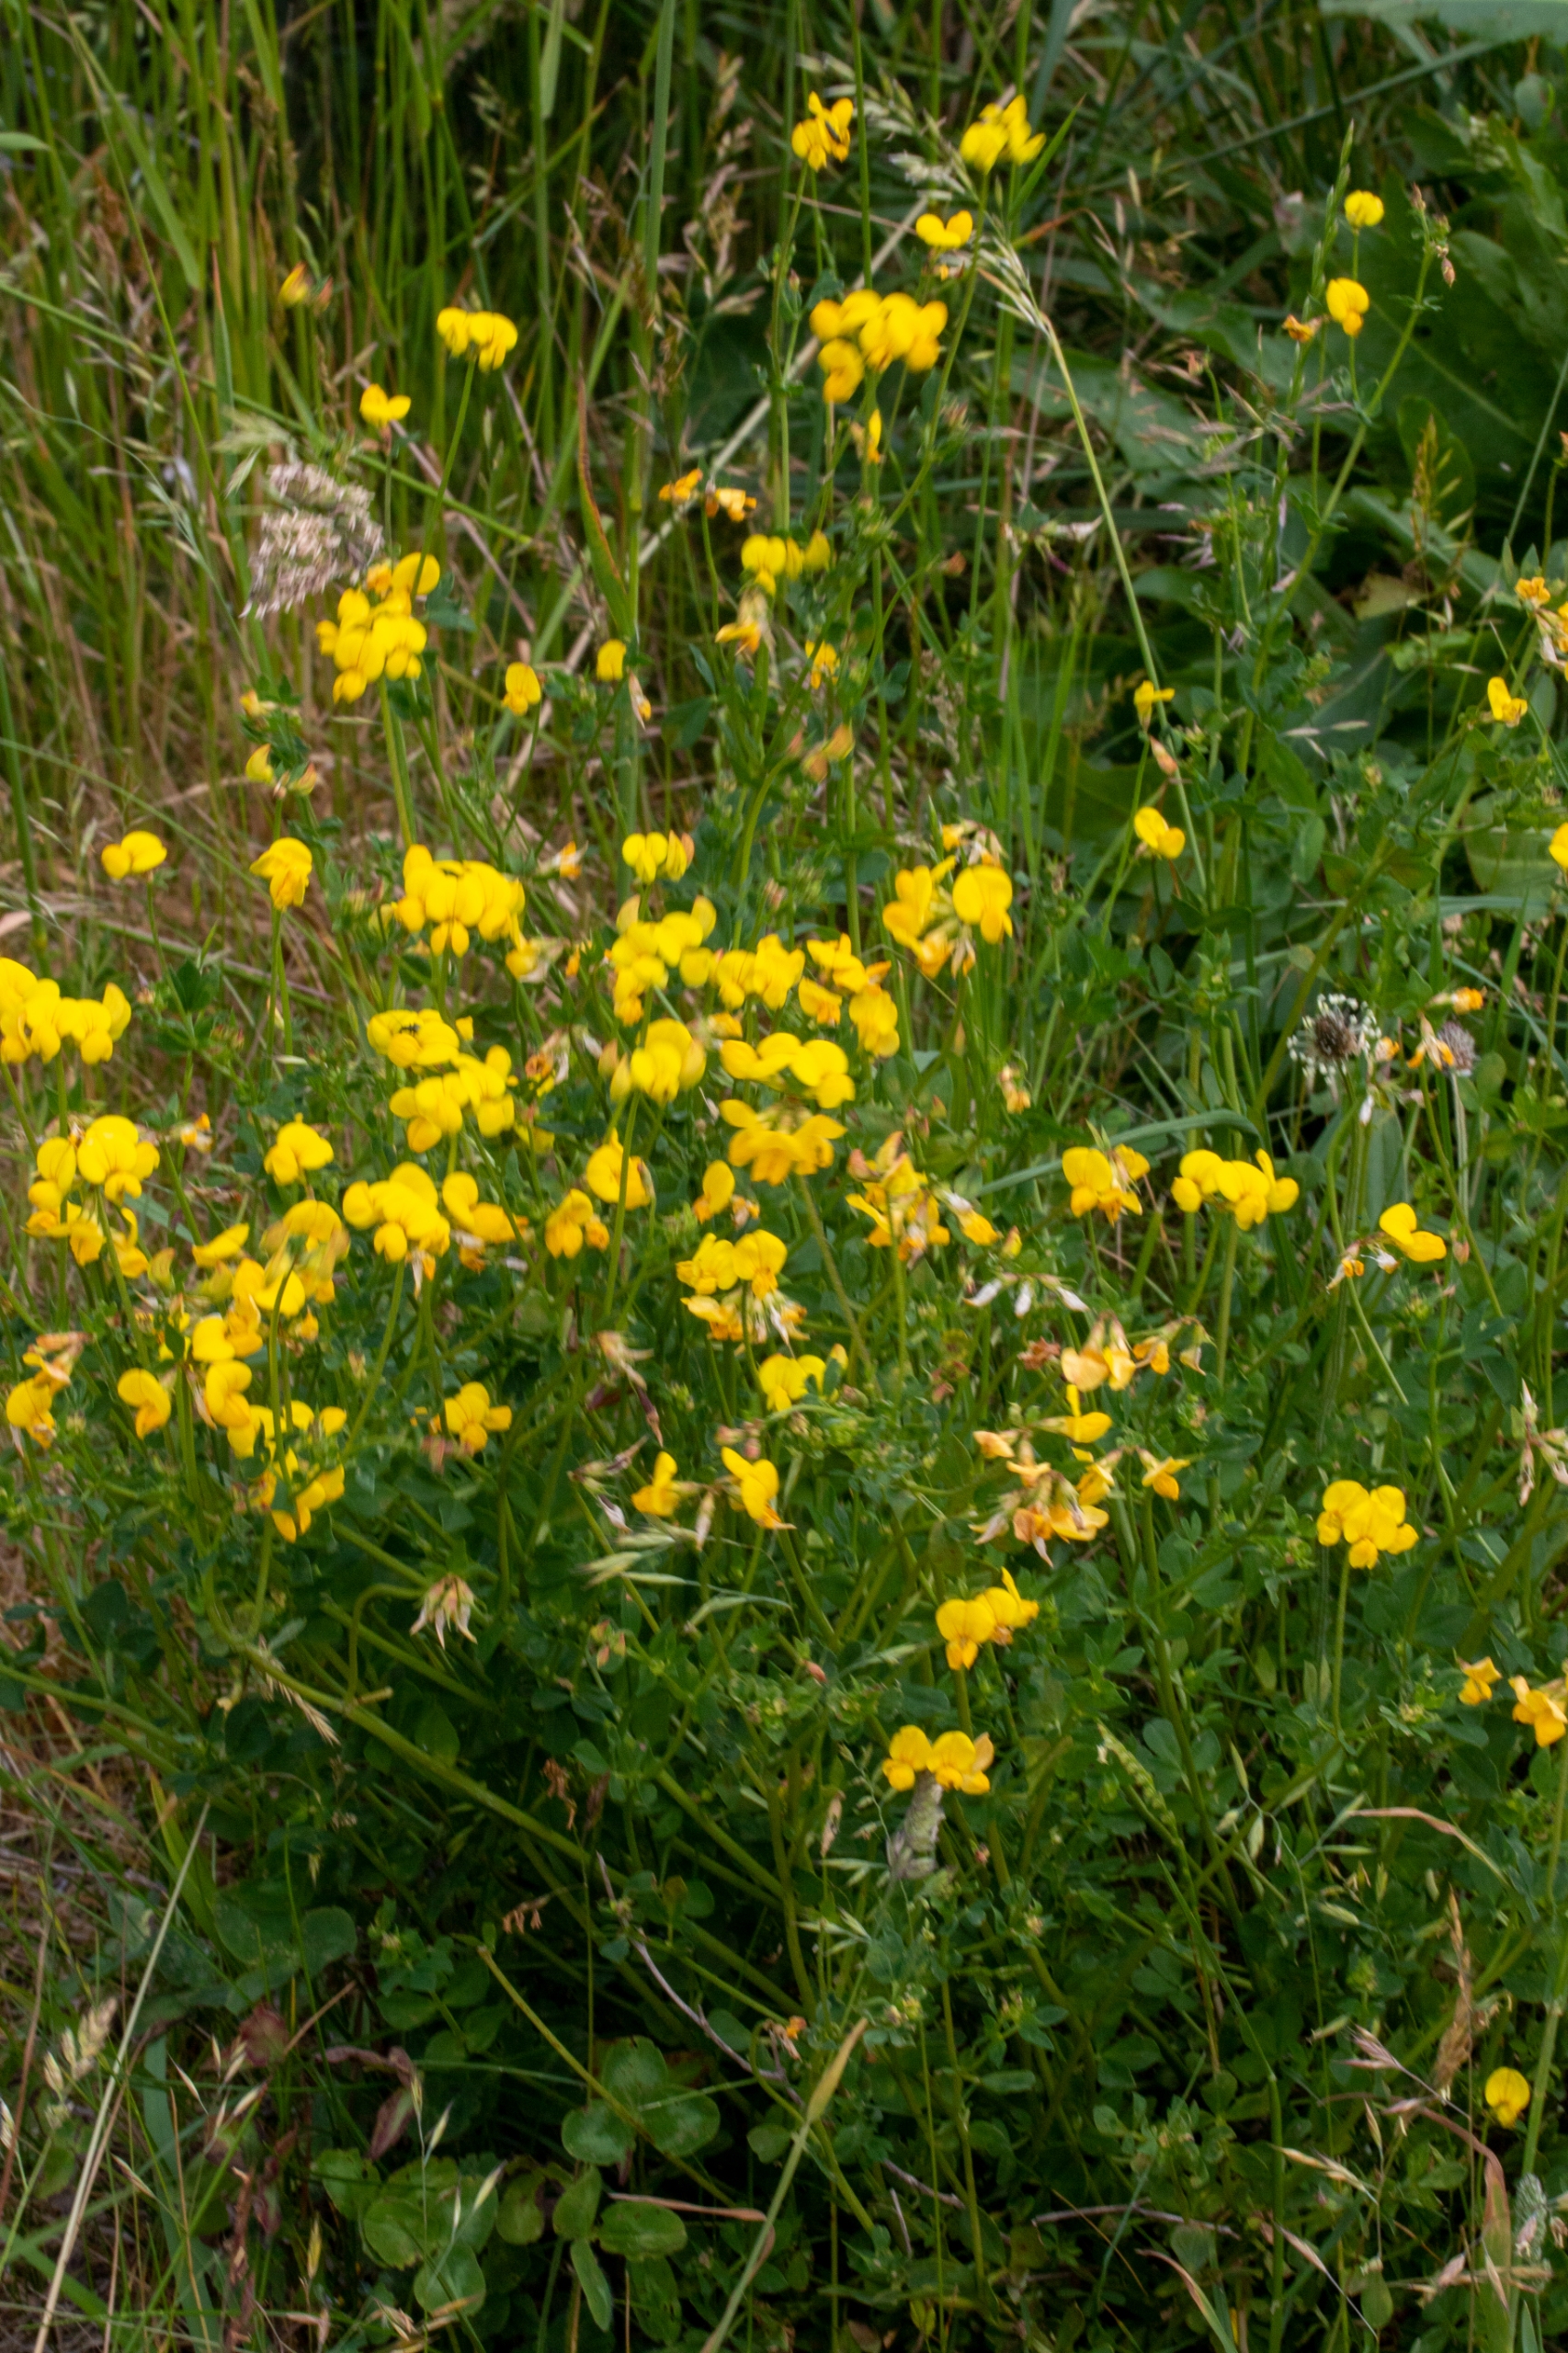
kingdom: Plantae
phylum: Tracheophyta
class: Magnoliopsida
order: Fabales
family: Fabaceae
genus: Lotus
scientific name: Lotus corniculatus
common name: Almindelig kællingetand
